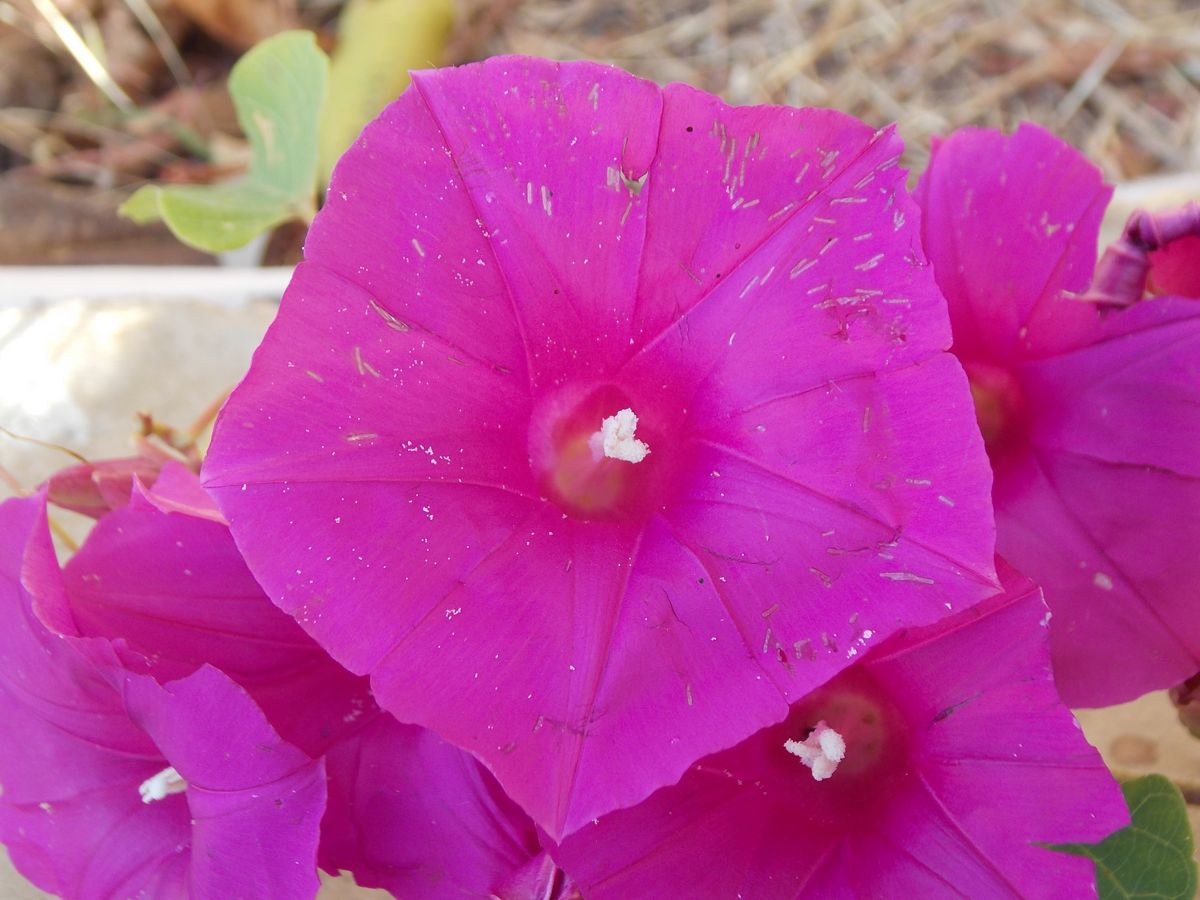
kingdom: Plantae
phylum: Tracheophyta
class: Magnoliopsida
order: Solanales
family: Convolvulaceae
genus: Ipomoea
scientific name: Ipomoea
